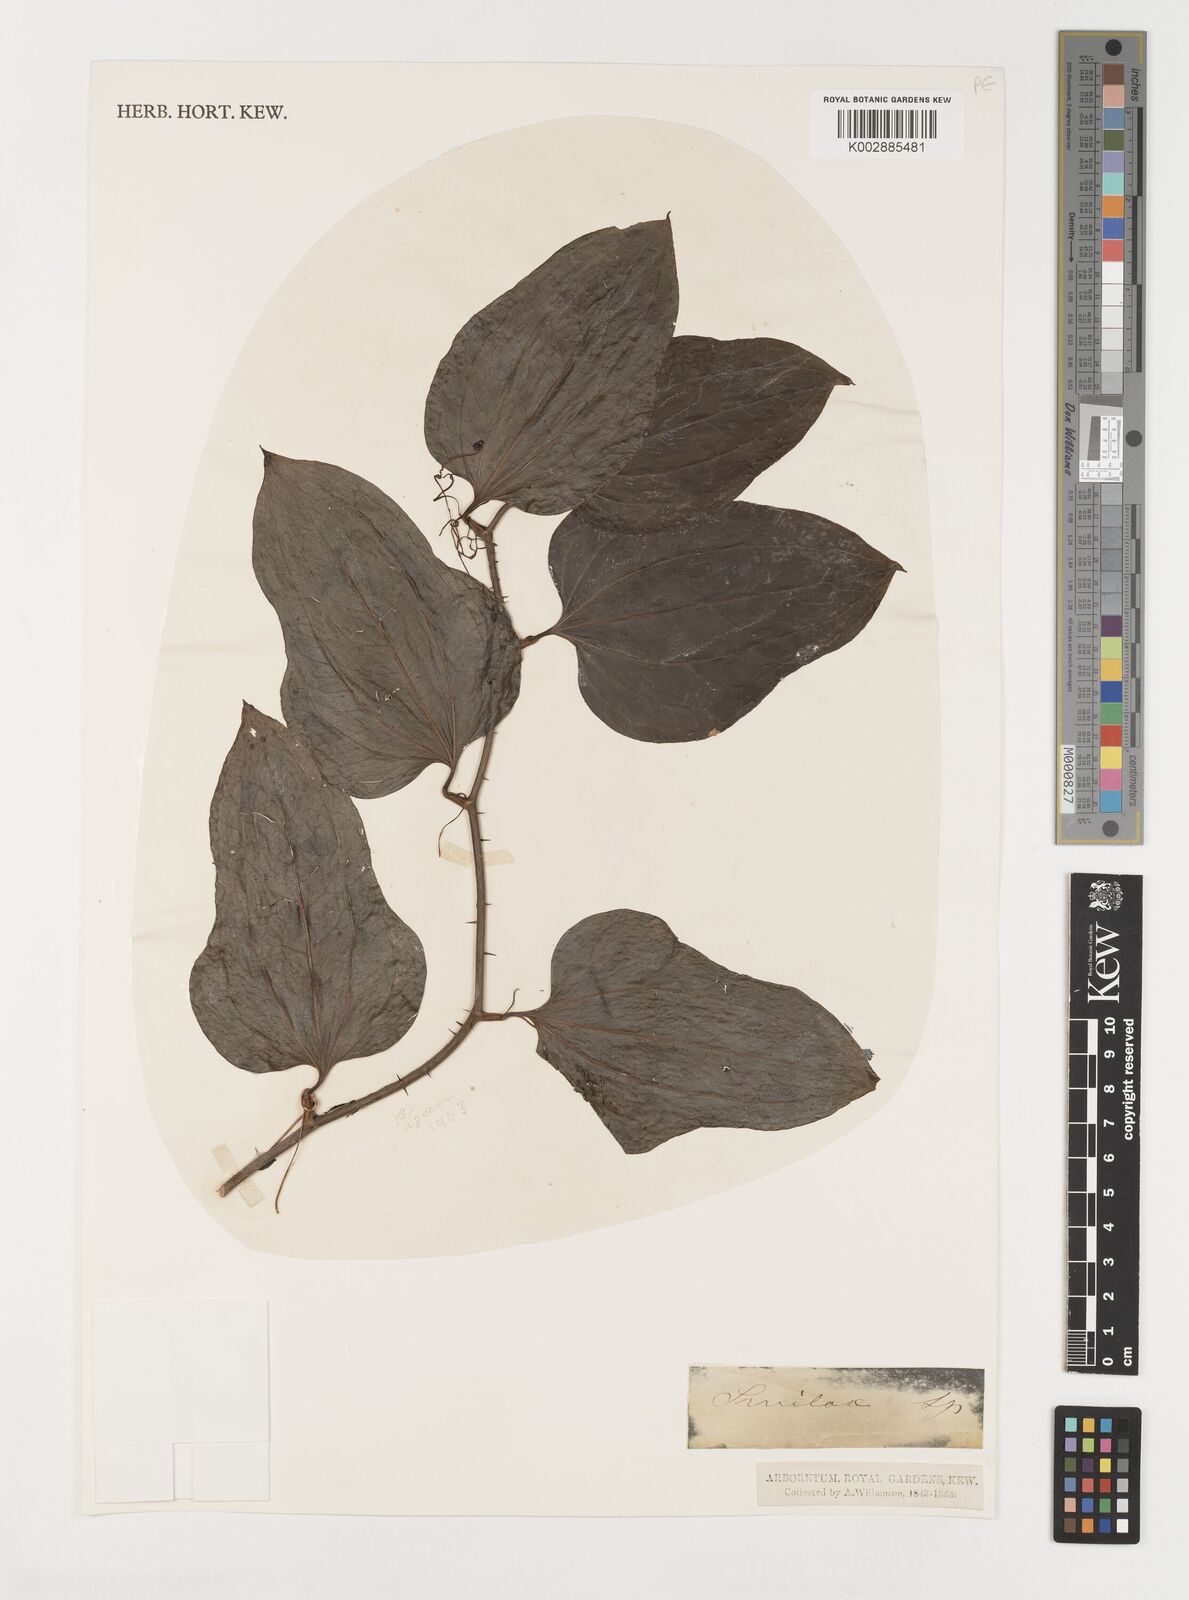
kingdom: Plantae
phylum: Tracheophyta
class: Liliopsida
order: Liliales
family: Smilacaceae
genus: Smilax
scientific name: Smilax
